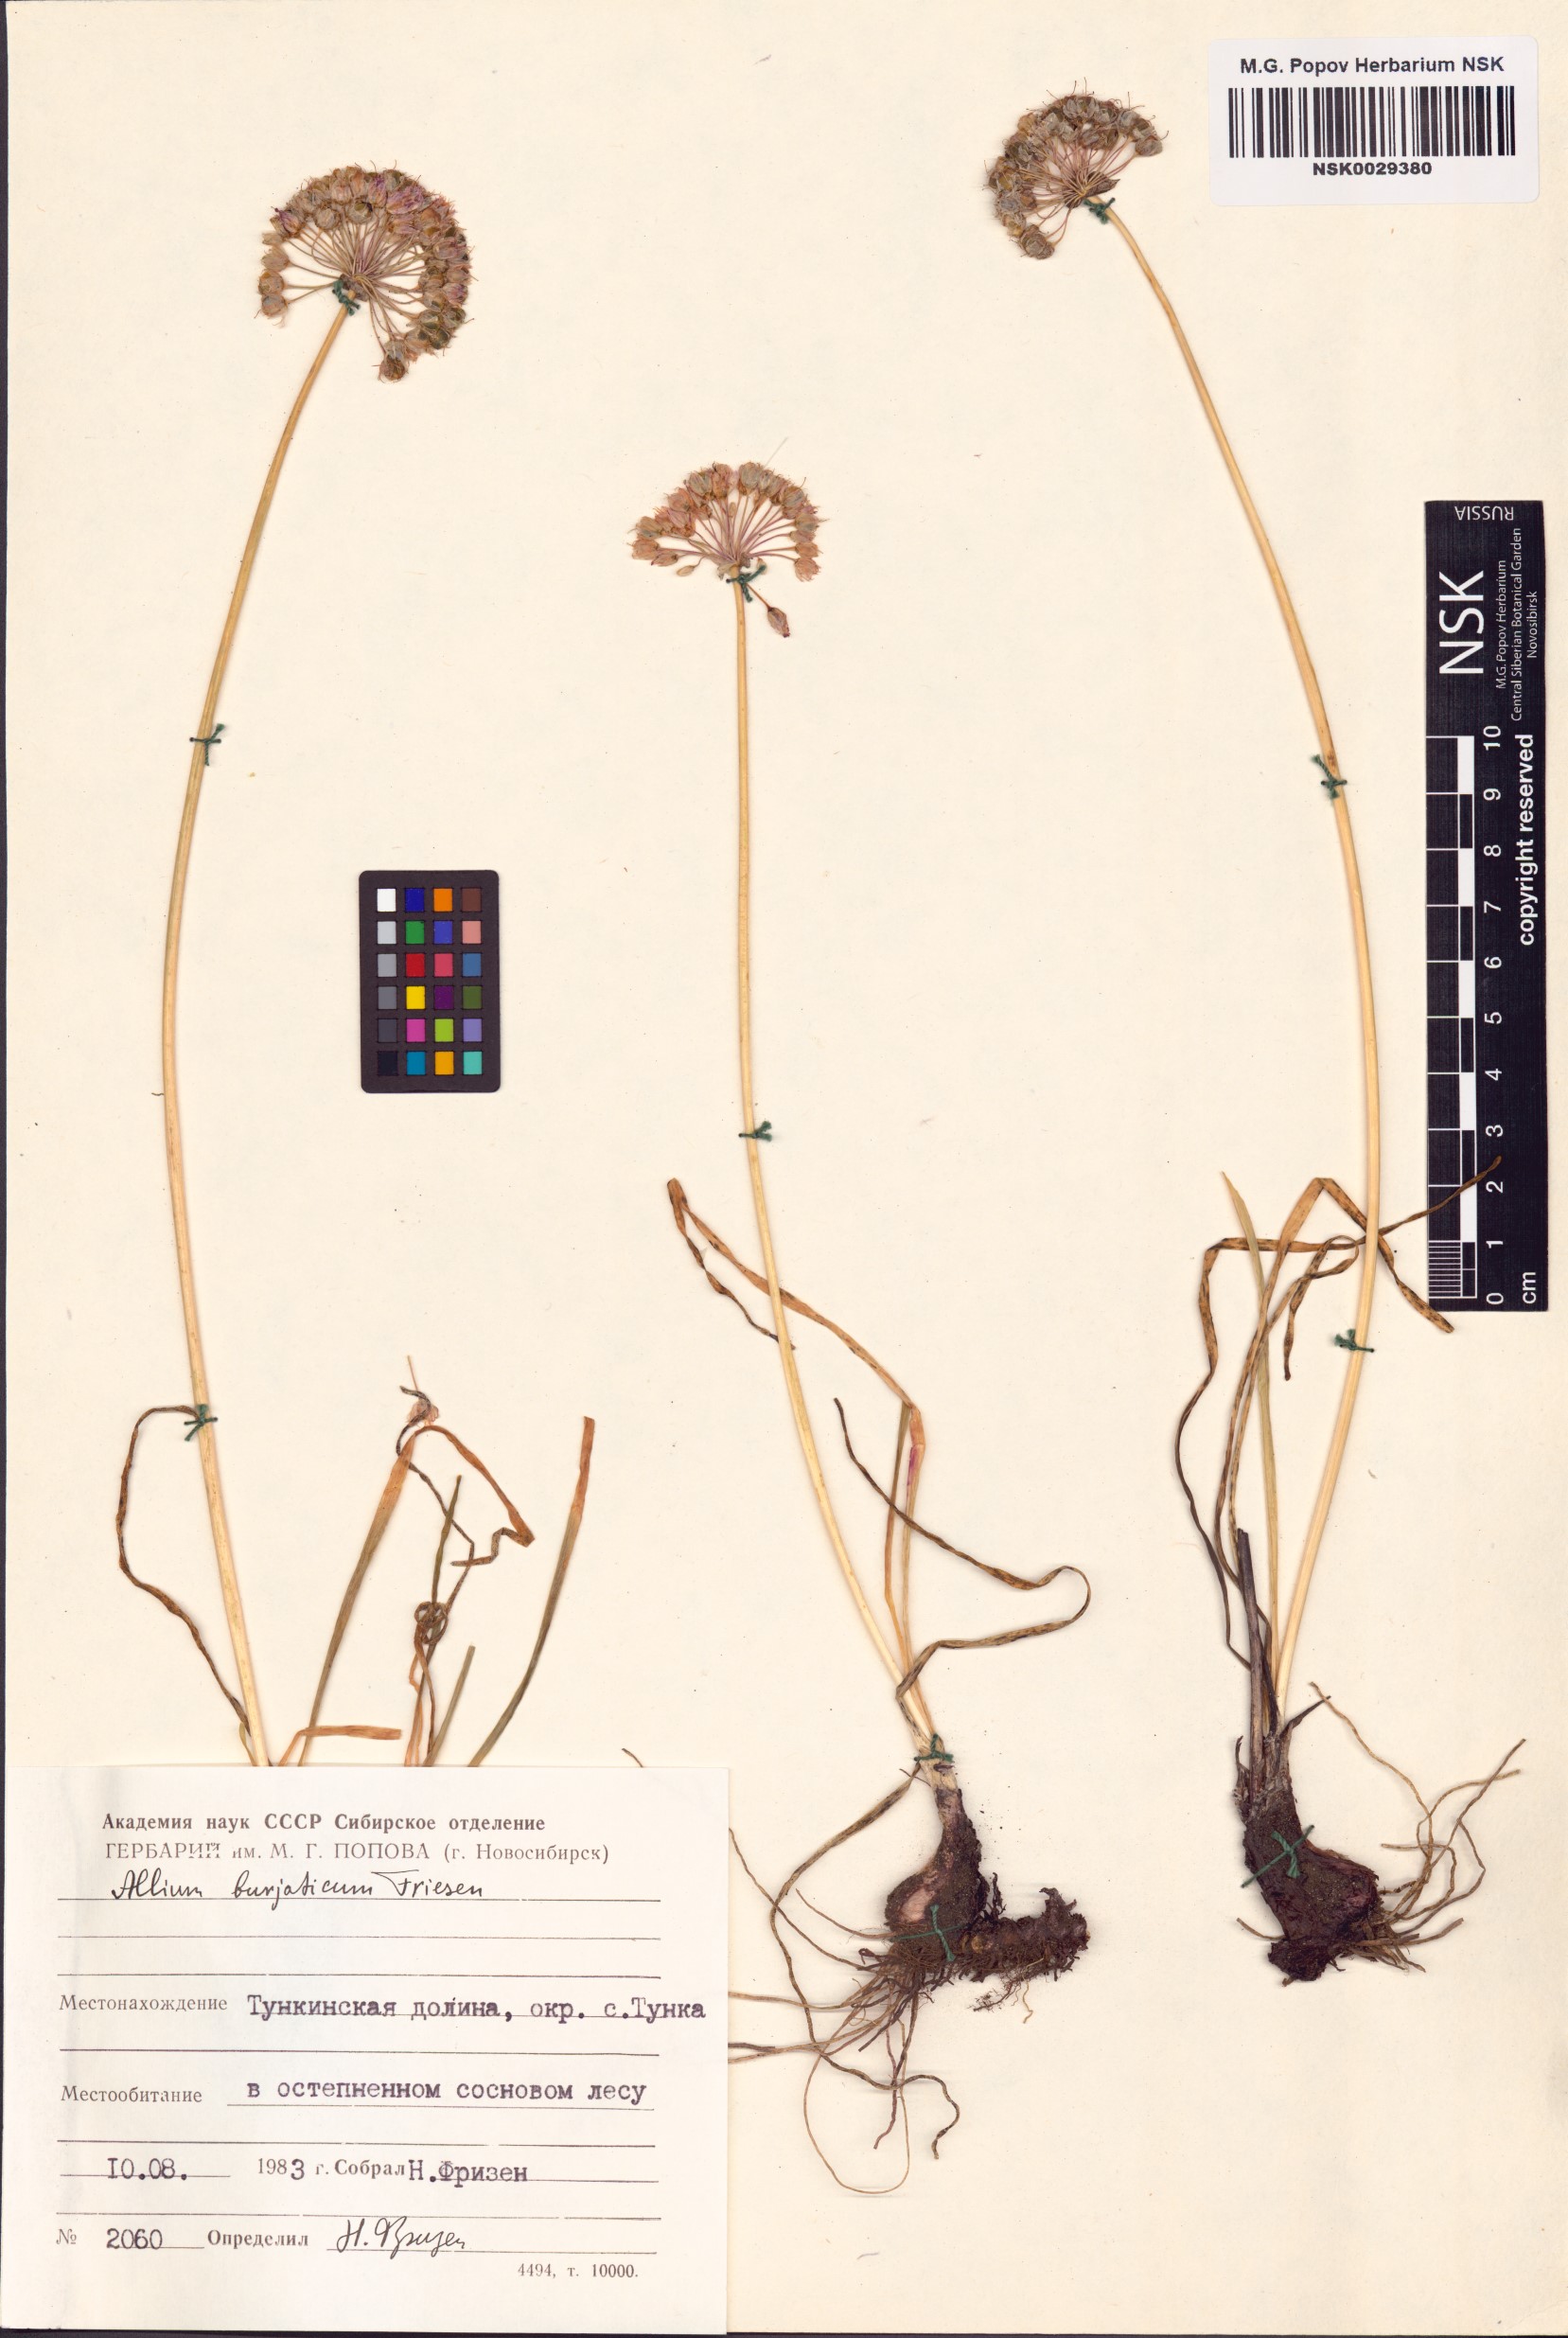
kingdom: Plantae
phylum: Tracheophyta
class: Liliopsida
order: Asparagales
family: Amaryllidaceae
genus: Allium
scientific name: Allium burjaticum
